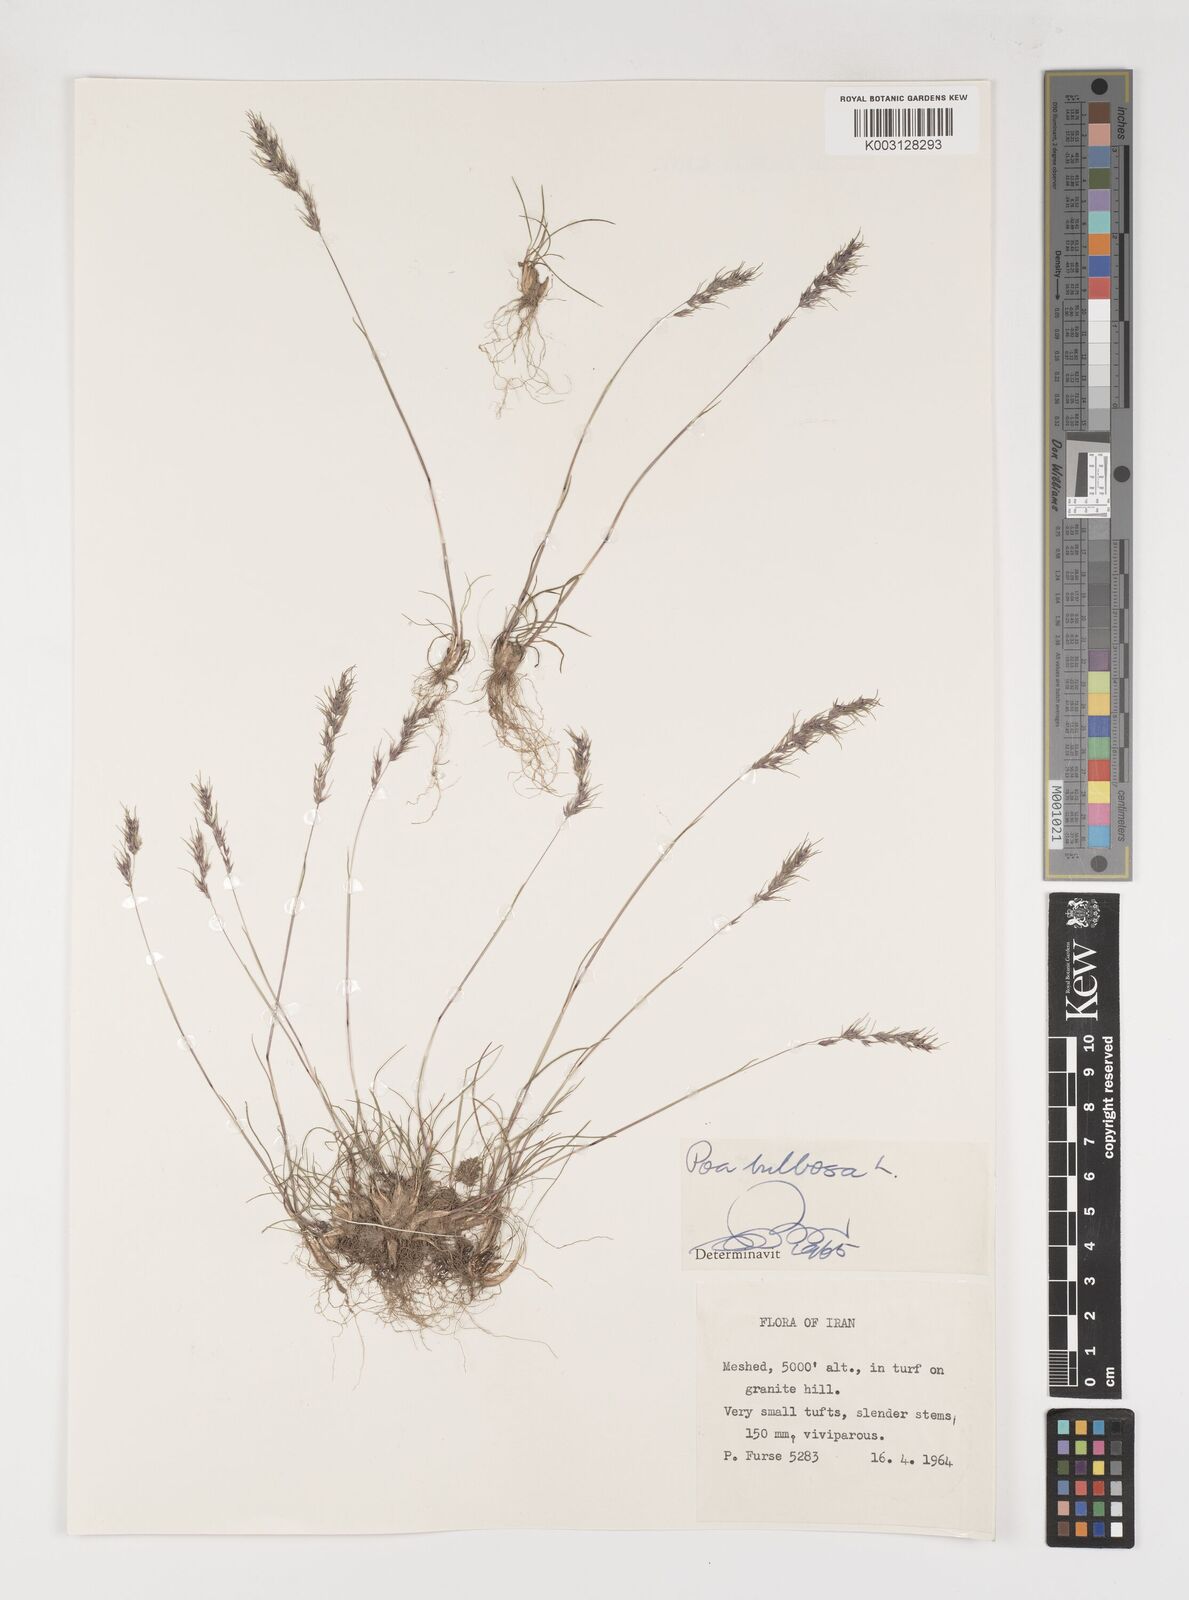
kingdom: Plantae
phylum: Tracheophyta
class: Liliopsida
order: Poales
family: Poaceae
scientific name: Poaceae
